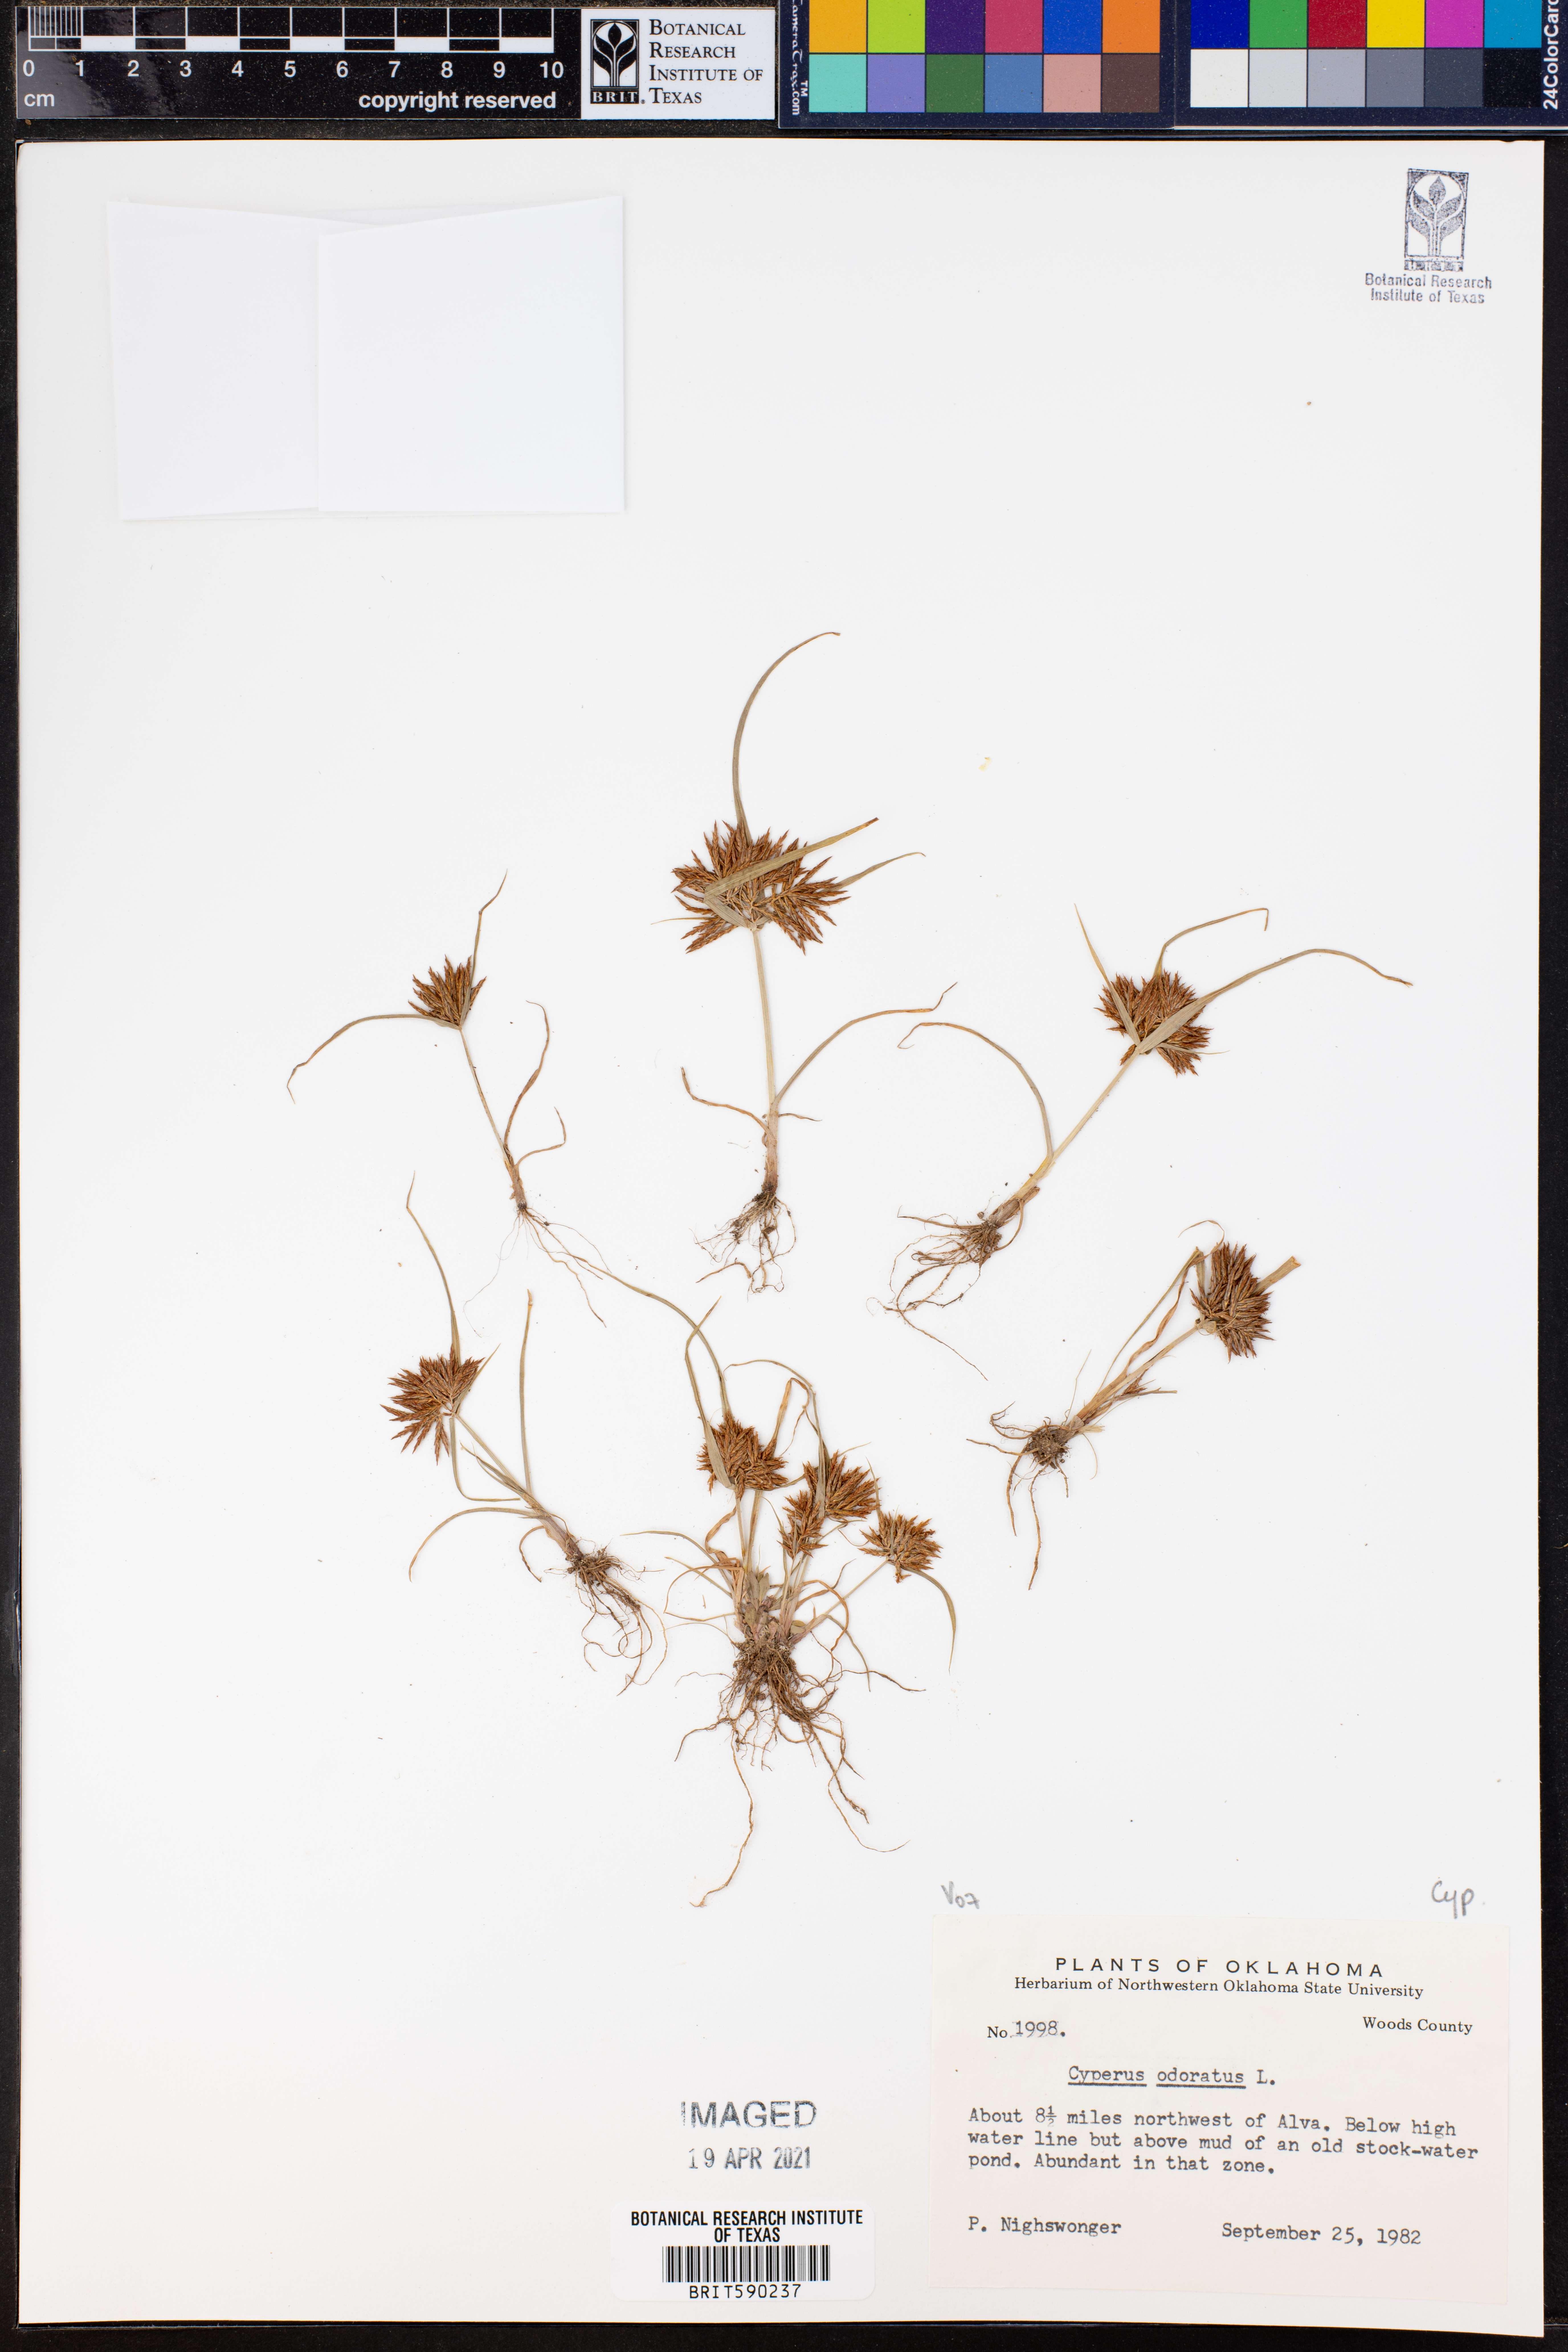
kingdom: Plantae
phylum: Tracheophyta
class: Liliopsida
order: Poales
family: Cyperaceae
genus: Cyperus
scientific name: Cyperus odoratus
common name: Fragrant flatsedge
